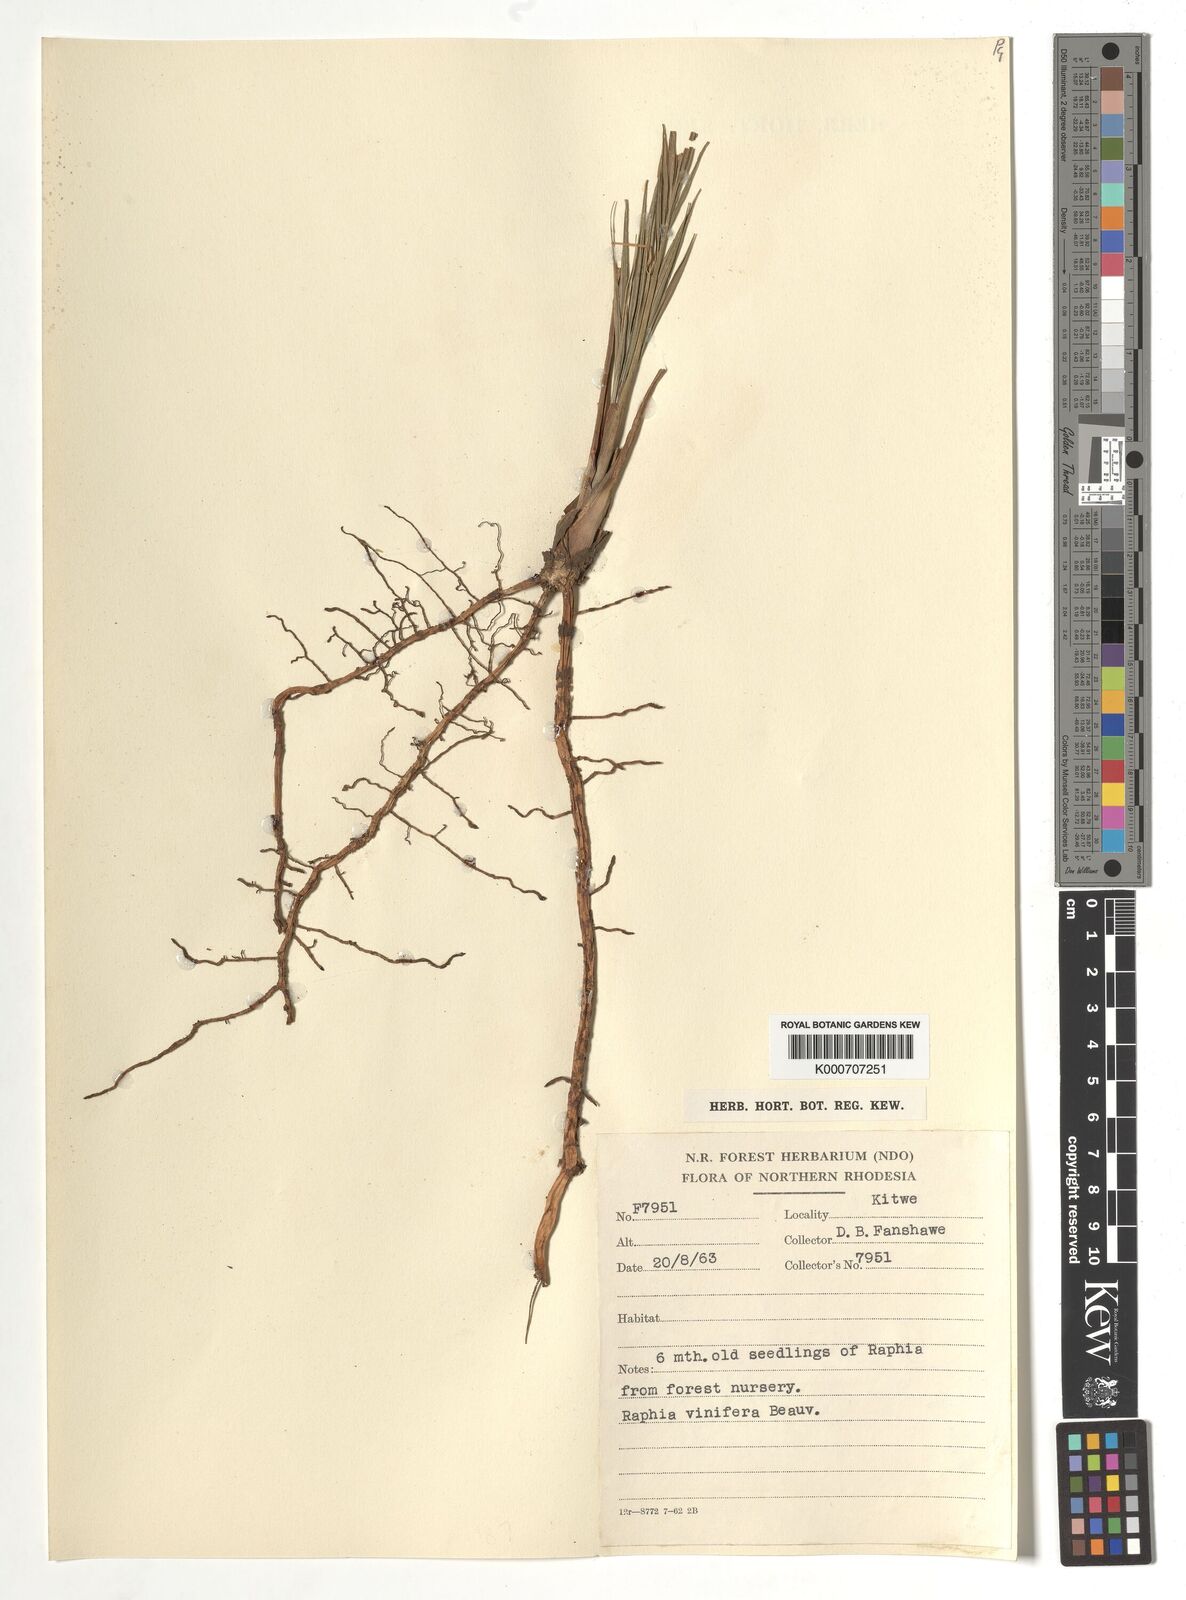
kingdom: Plantae
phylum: Tracheophyta
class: Liliopsida
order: Arecales
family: Arecaceae
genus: Raphia
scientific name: Raphia vinifera
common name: Raphia palm
